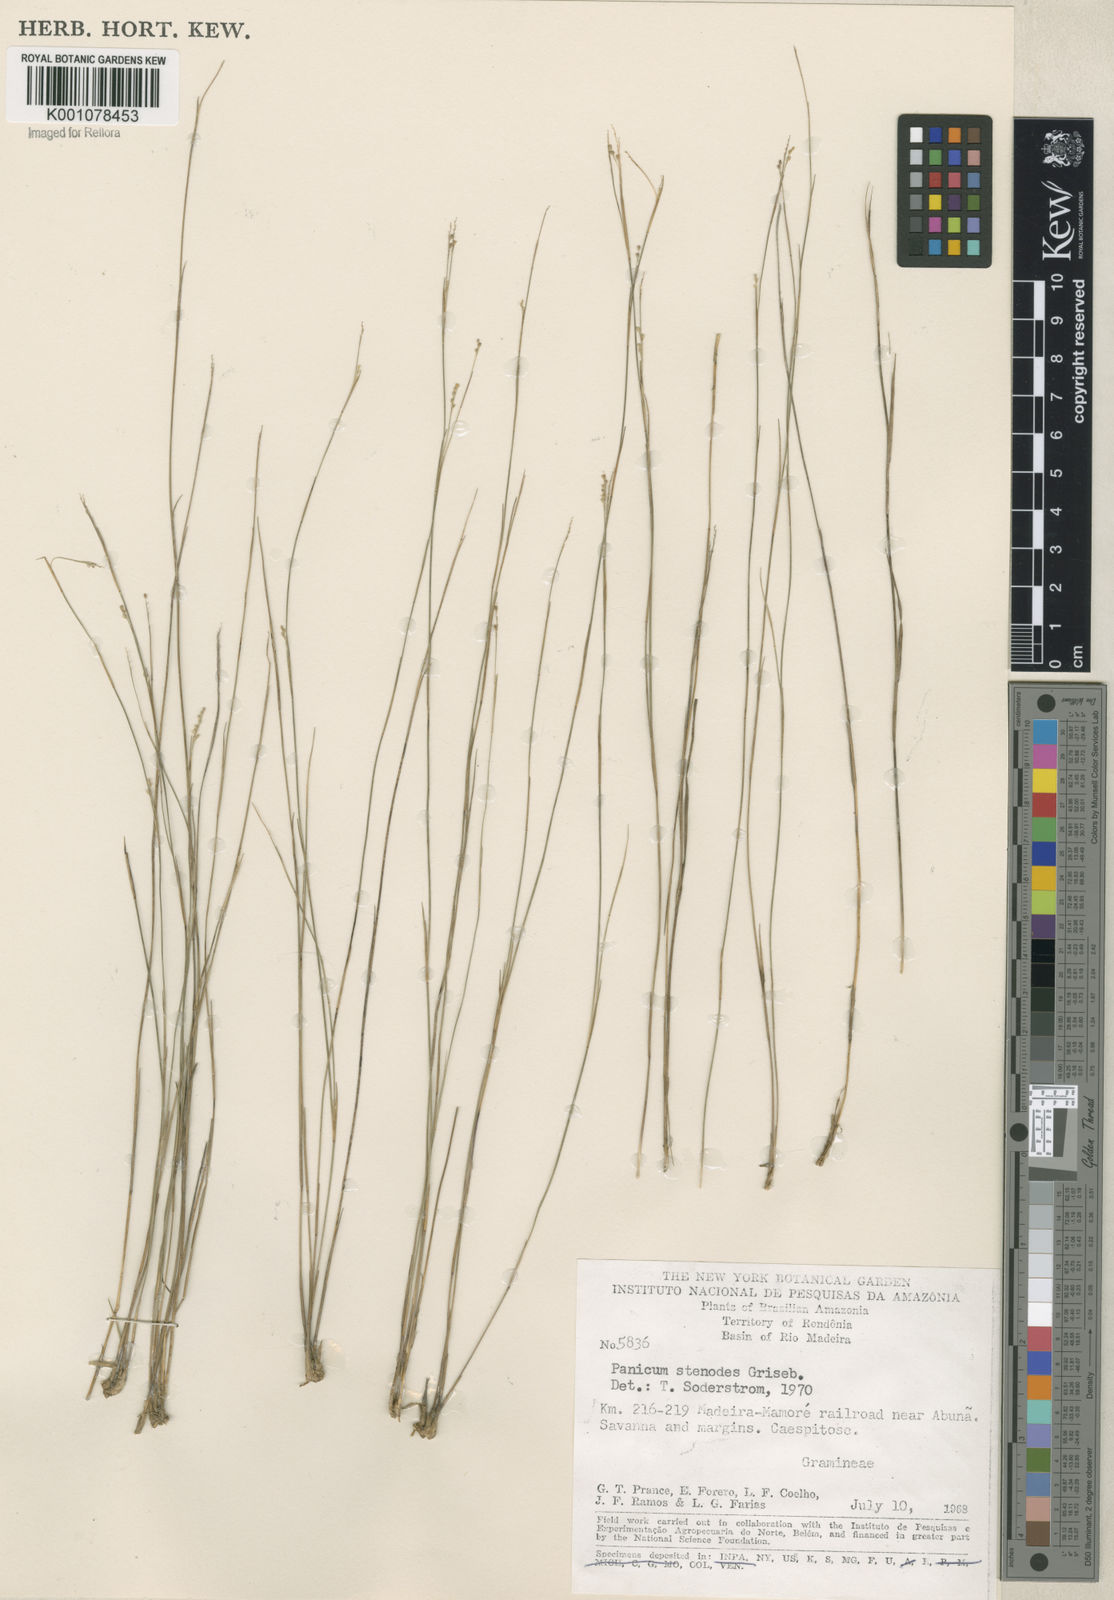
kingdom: Plantae
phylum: Tracheophyta
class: Liliopsida
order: Poales
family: Poaceae
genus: Coleataenia
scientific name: Coleataenia stenodes
